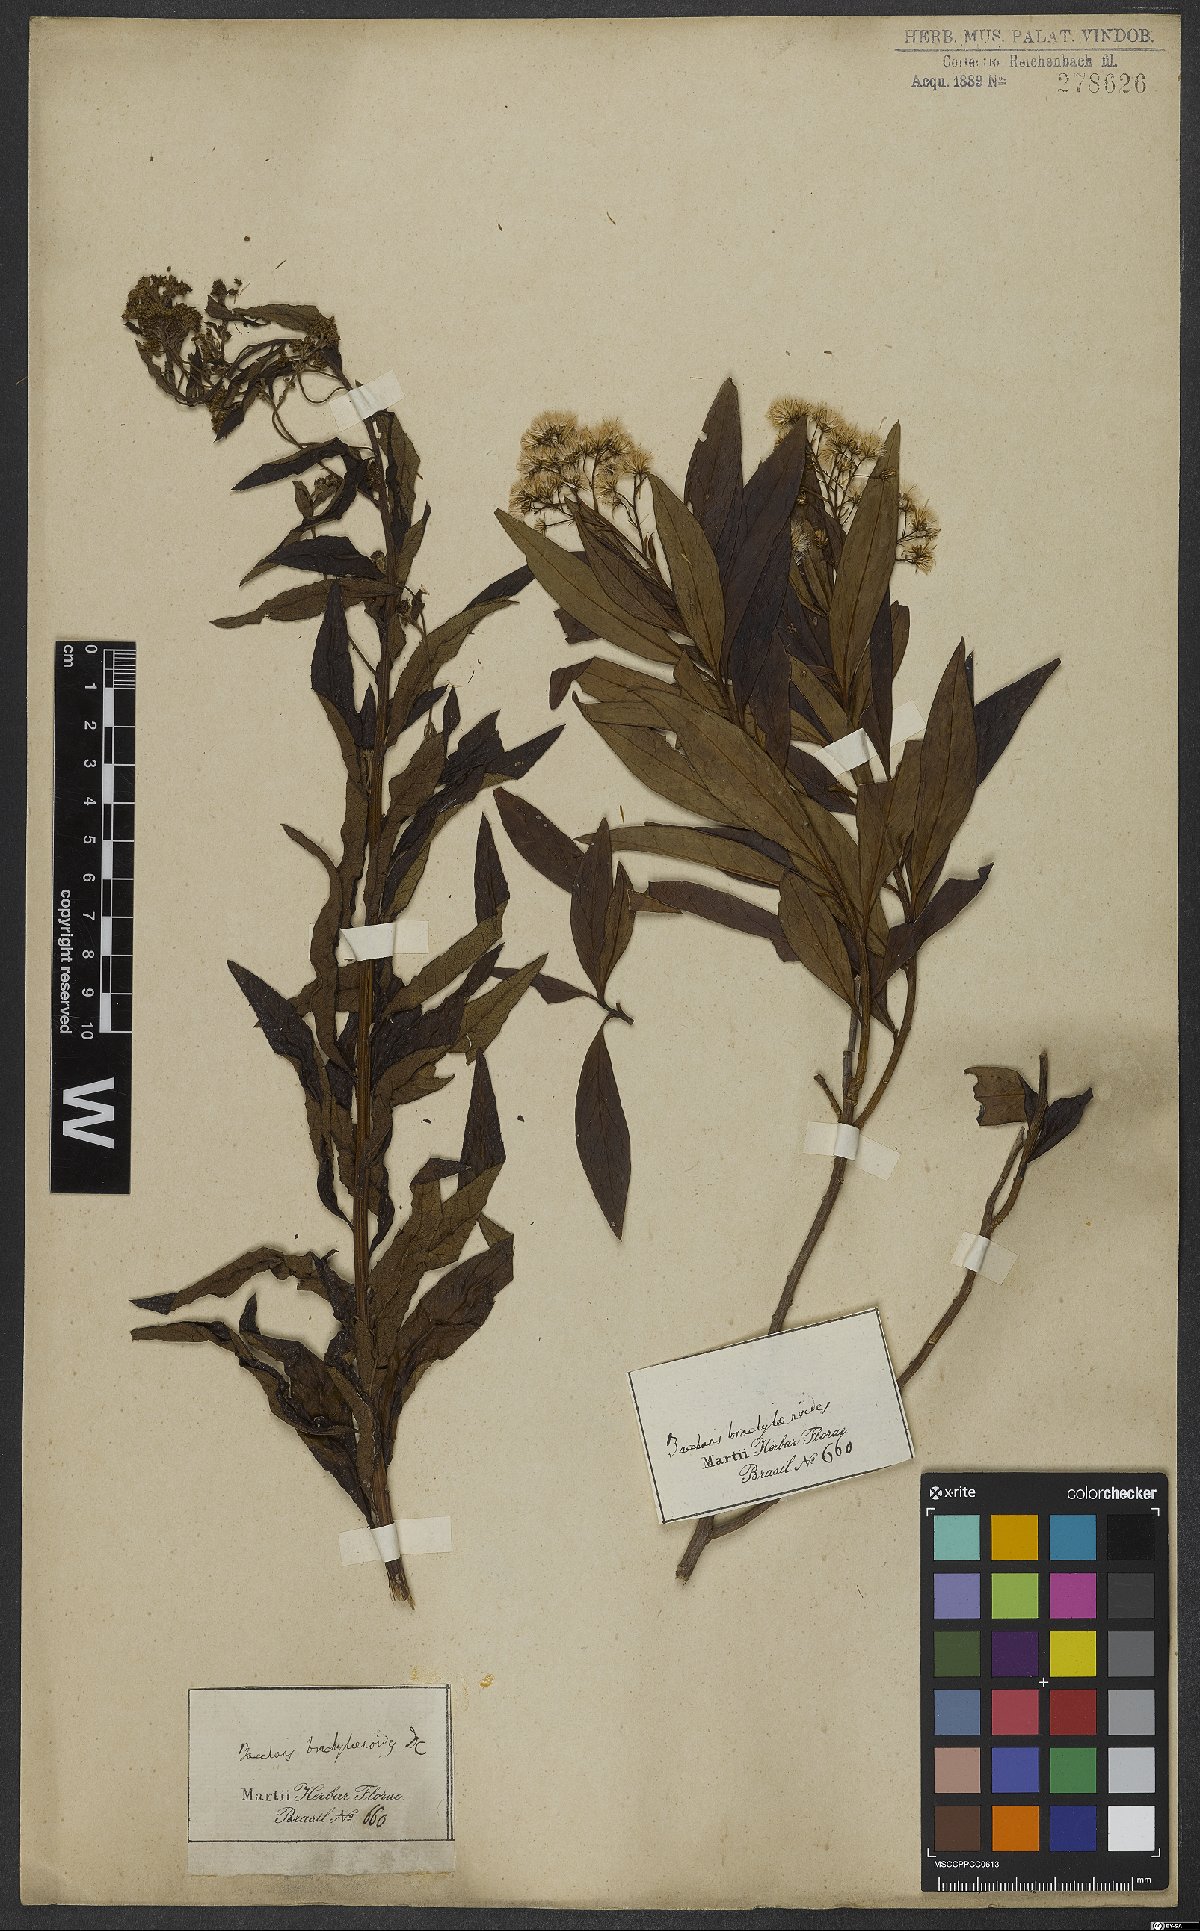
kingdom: Plantae
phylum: Tracheophyta
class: Magnoliopsida
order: Asterales
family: Asteraceae
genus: Baccharis
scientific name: Baccharis oblongifolia
